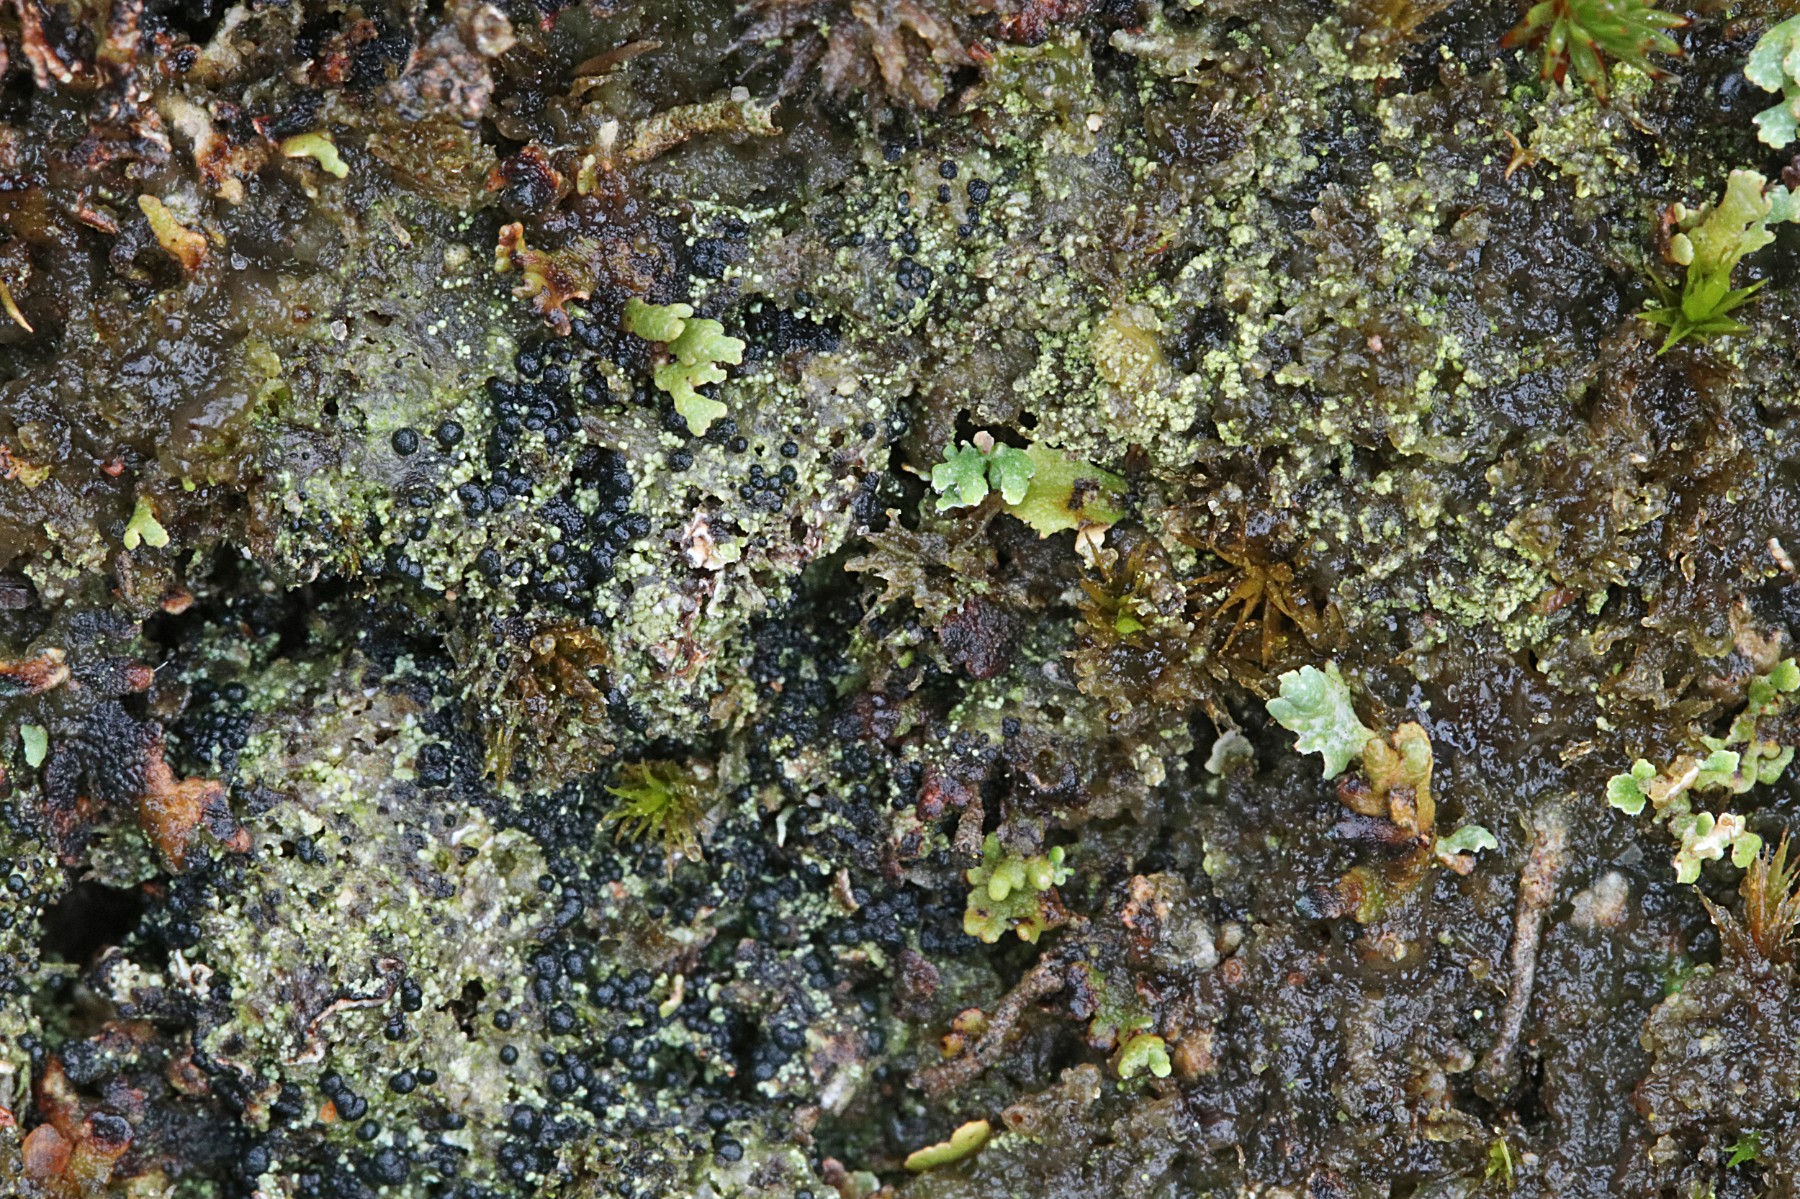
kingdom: Fungi
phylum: Ascomycota
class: Lecanoromycetes
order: Lecanorales
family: Byssolomataceae
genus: Micarea
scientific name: Micarea lignaria
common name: tørve-knaplav
